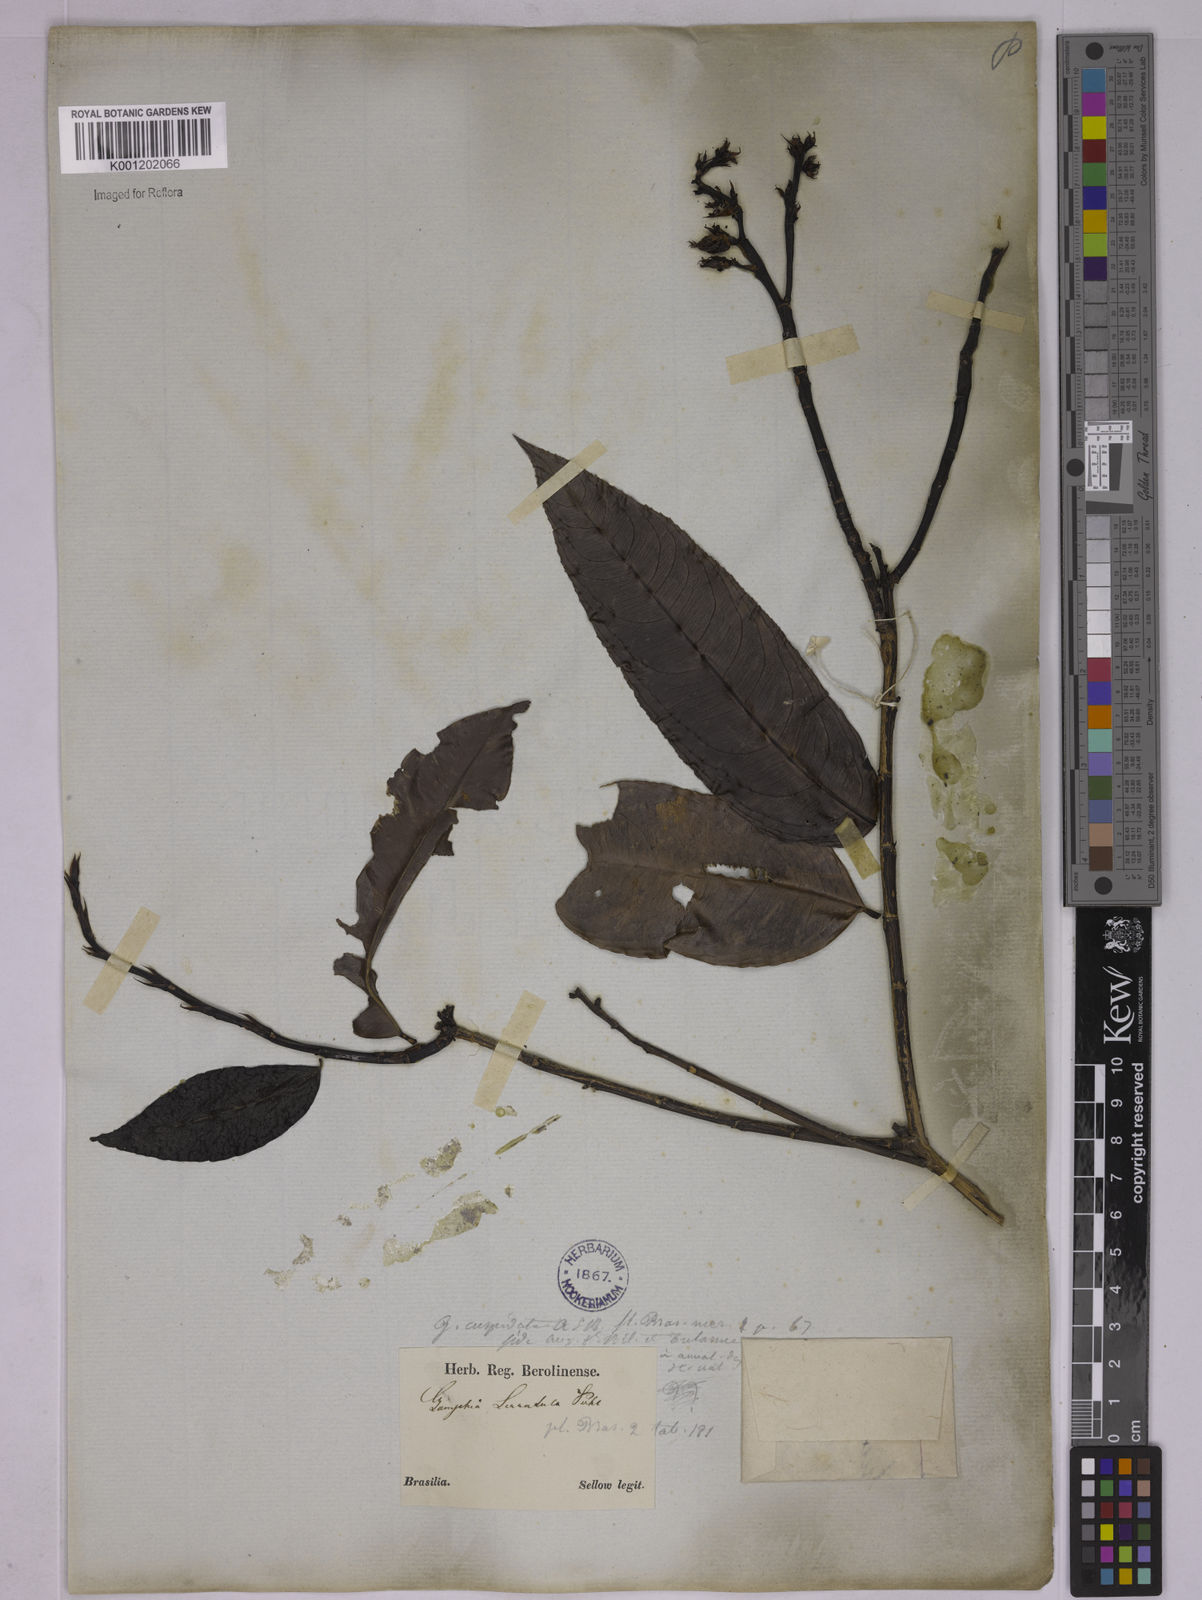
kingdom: Plantae
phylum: Tracheophyta
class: Magnoliopsida
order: Malpighiales
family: Ochnaceae
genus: Ouratea
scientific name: Ouratea cuspidata
